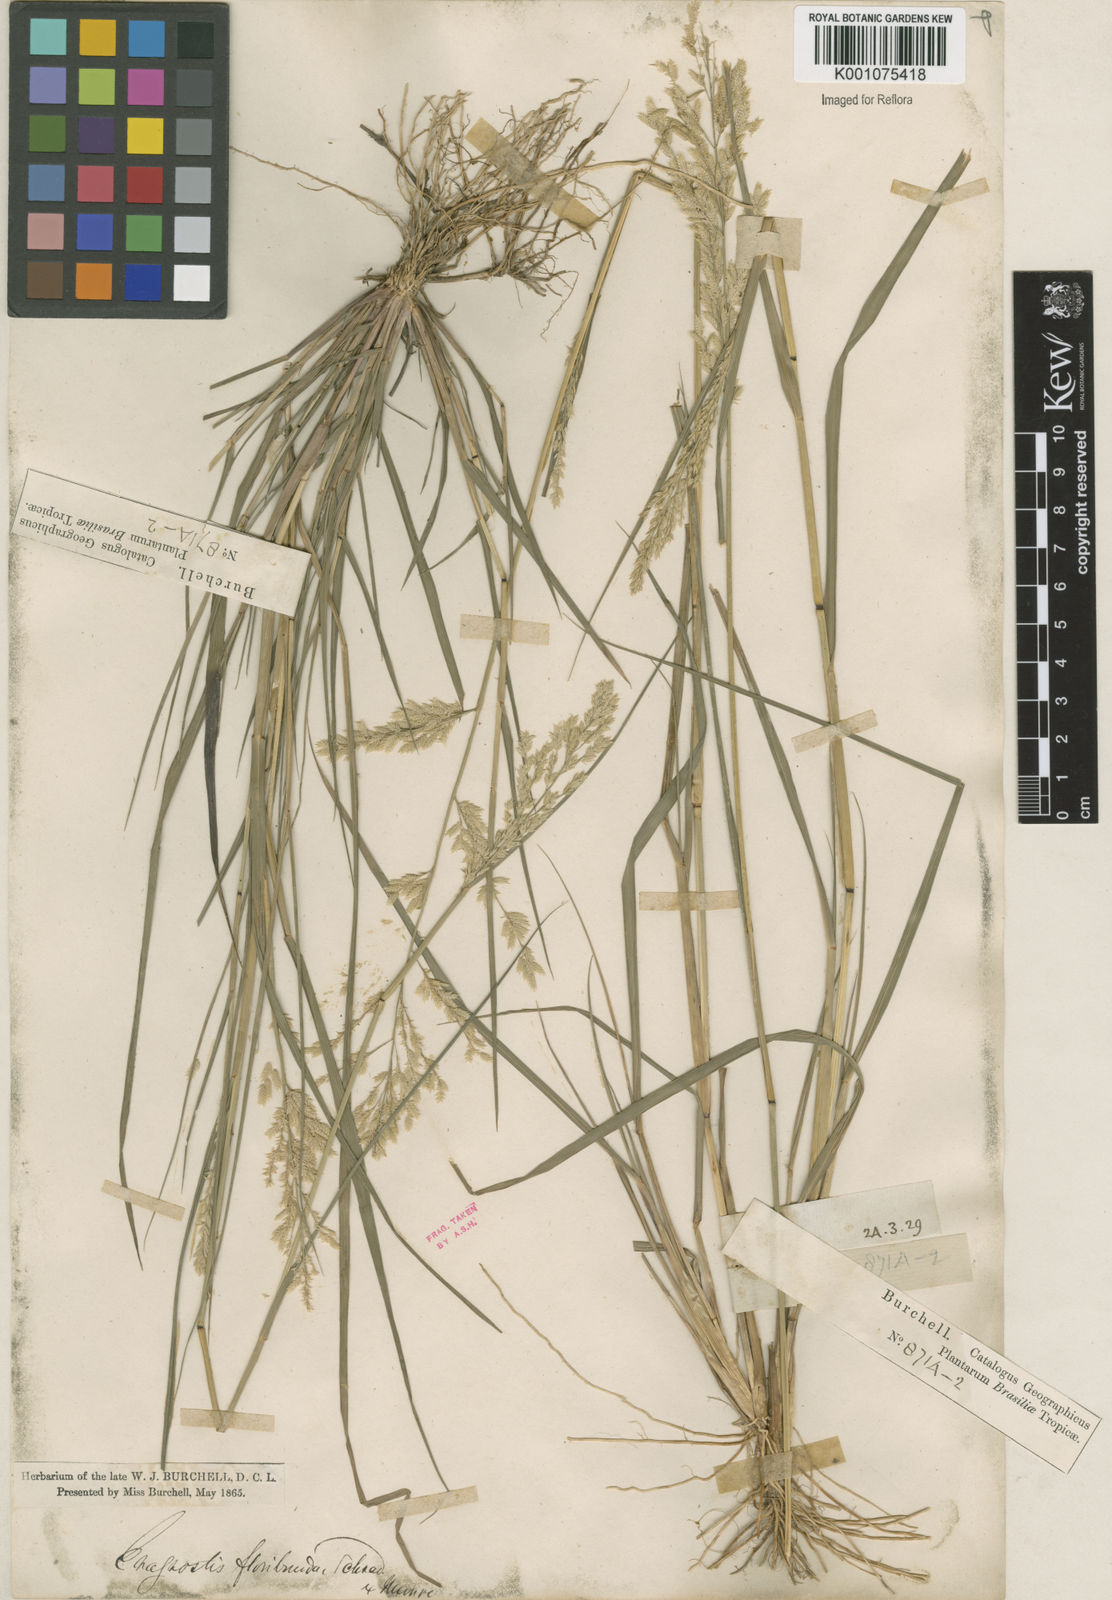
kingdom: Plantae
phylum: Tracheophyta
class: Liliopsida
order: Poales
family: Poaceae
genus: Eragrostis
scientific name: Eragrostis rufescens
